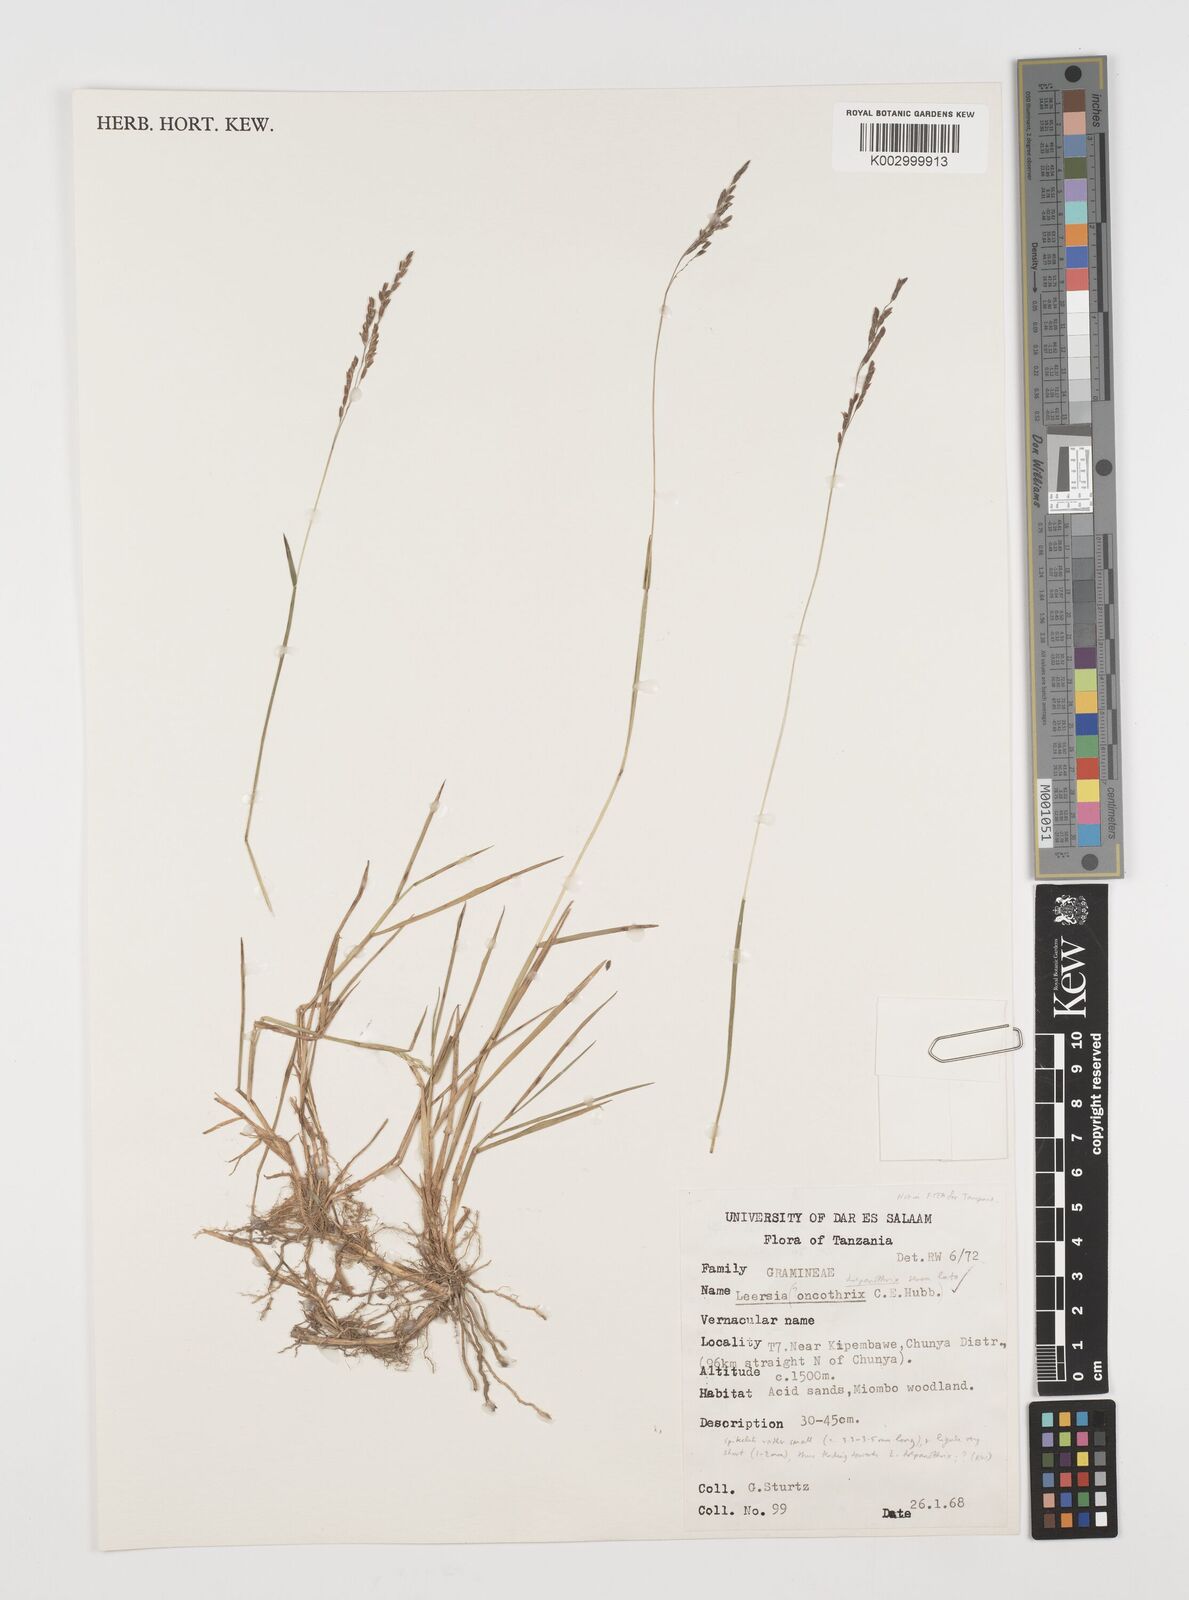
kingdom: Plantae
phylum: Tracheophyta
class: Liliopsida
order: Poales
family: Poaceae
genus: Leersia
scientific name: Leersia drepanothrix
